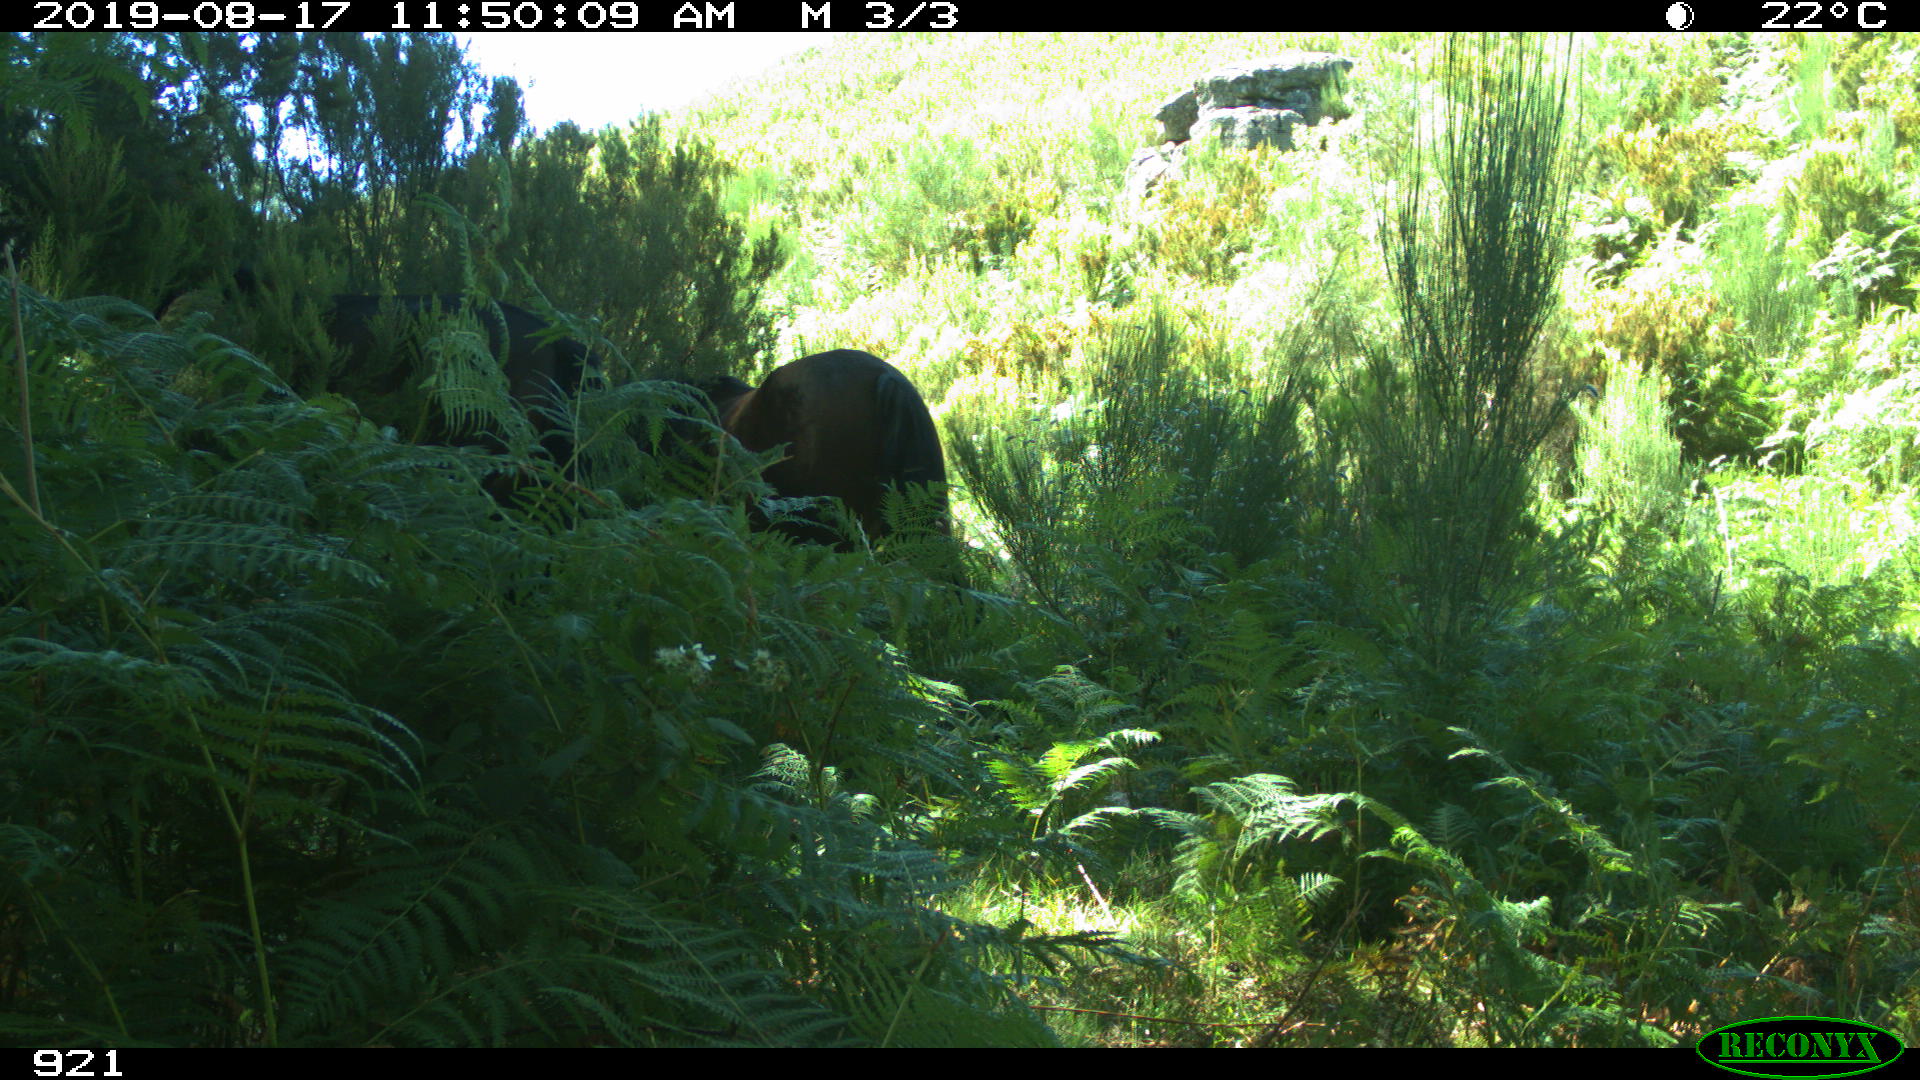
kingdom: Animalia
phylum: Chordata
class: Mammalia
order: Perissodactyla
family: Equidae
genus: Equus
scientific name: Equus caballus
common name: Horse
